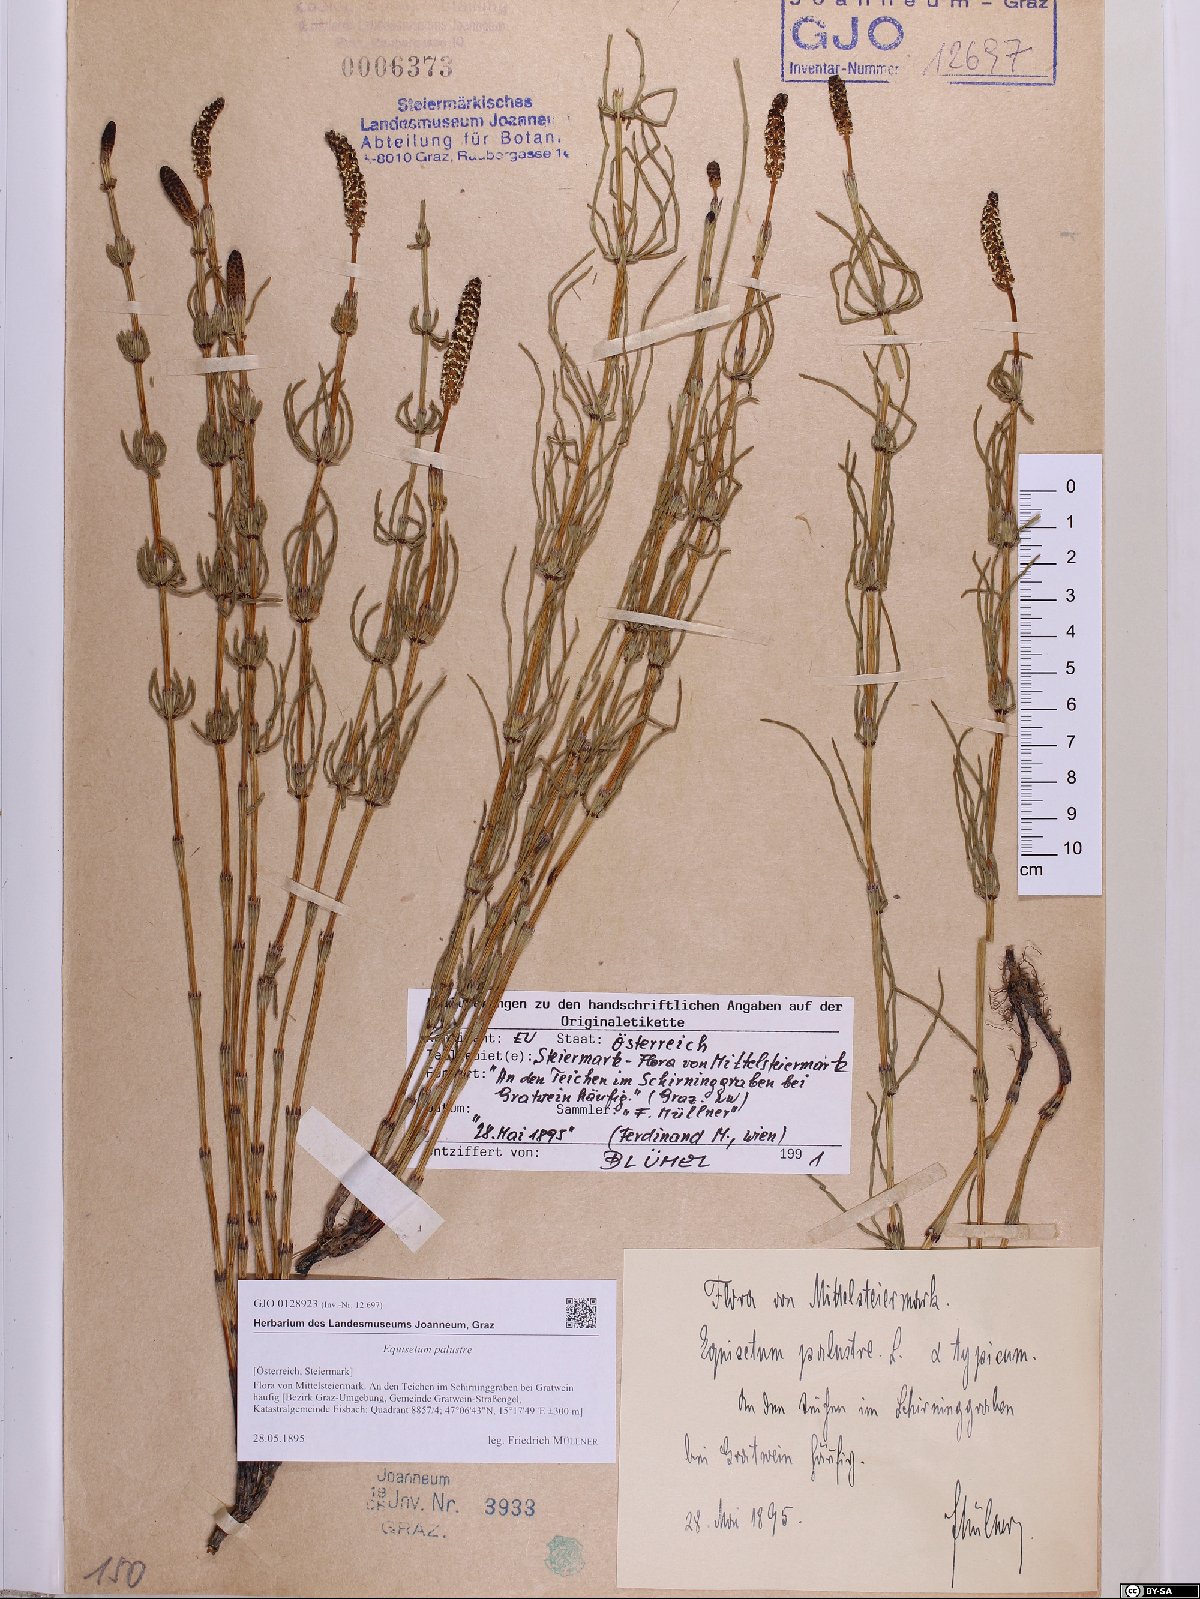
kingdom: Plantae
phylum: Tracheophyta
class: Polypodiopsida
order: Equisetales
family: Equisetaceae
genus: Equisetum
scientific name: Equisetum palustre
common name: Marsh horsetail
